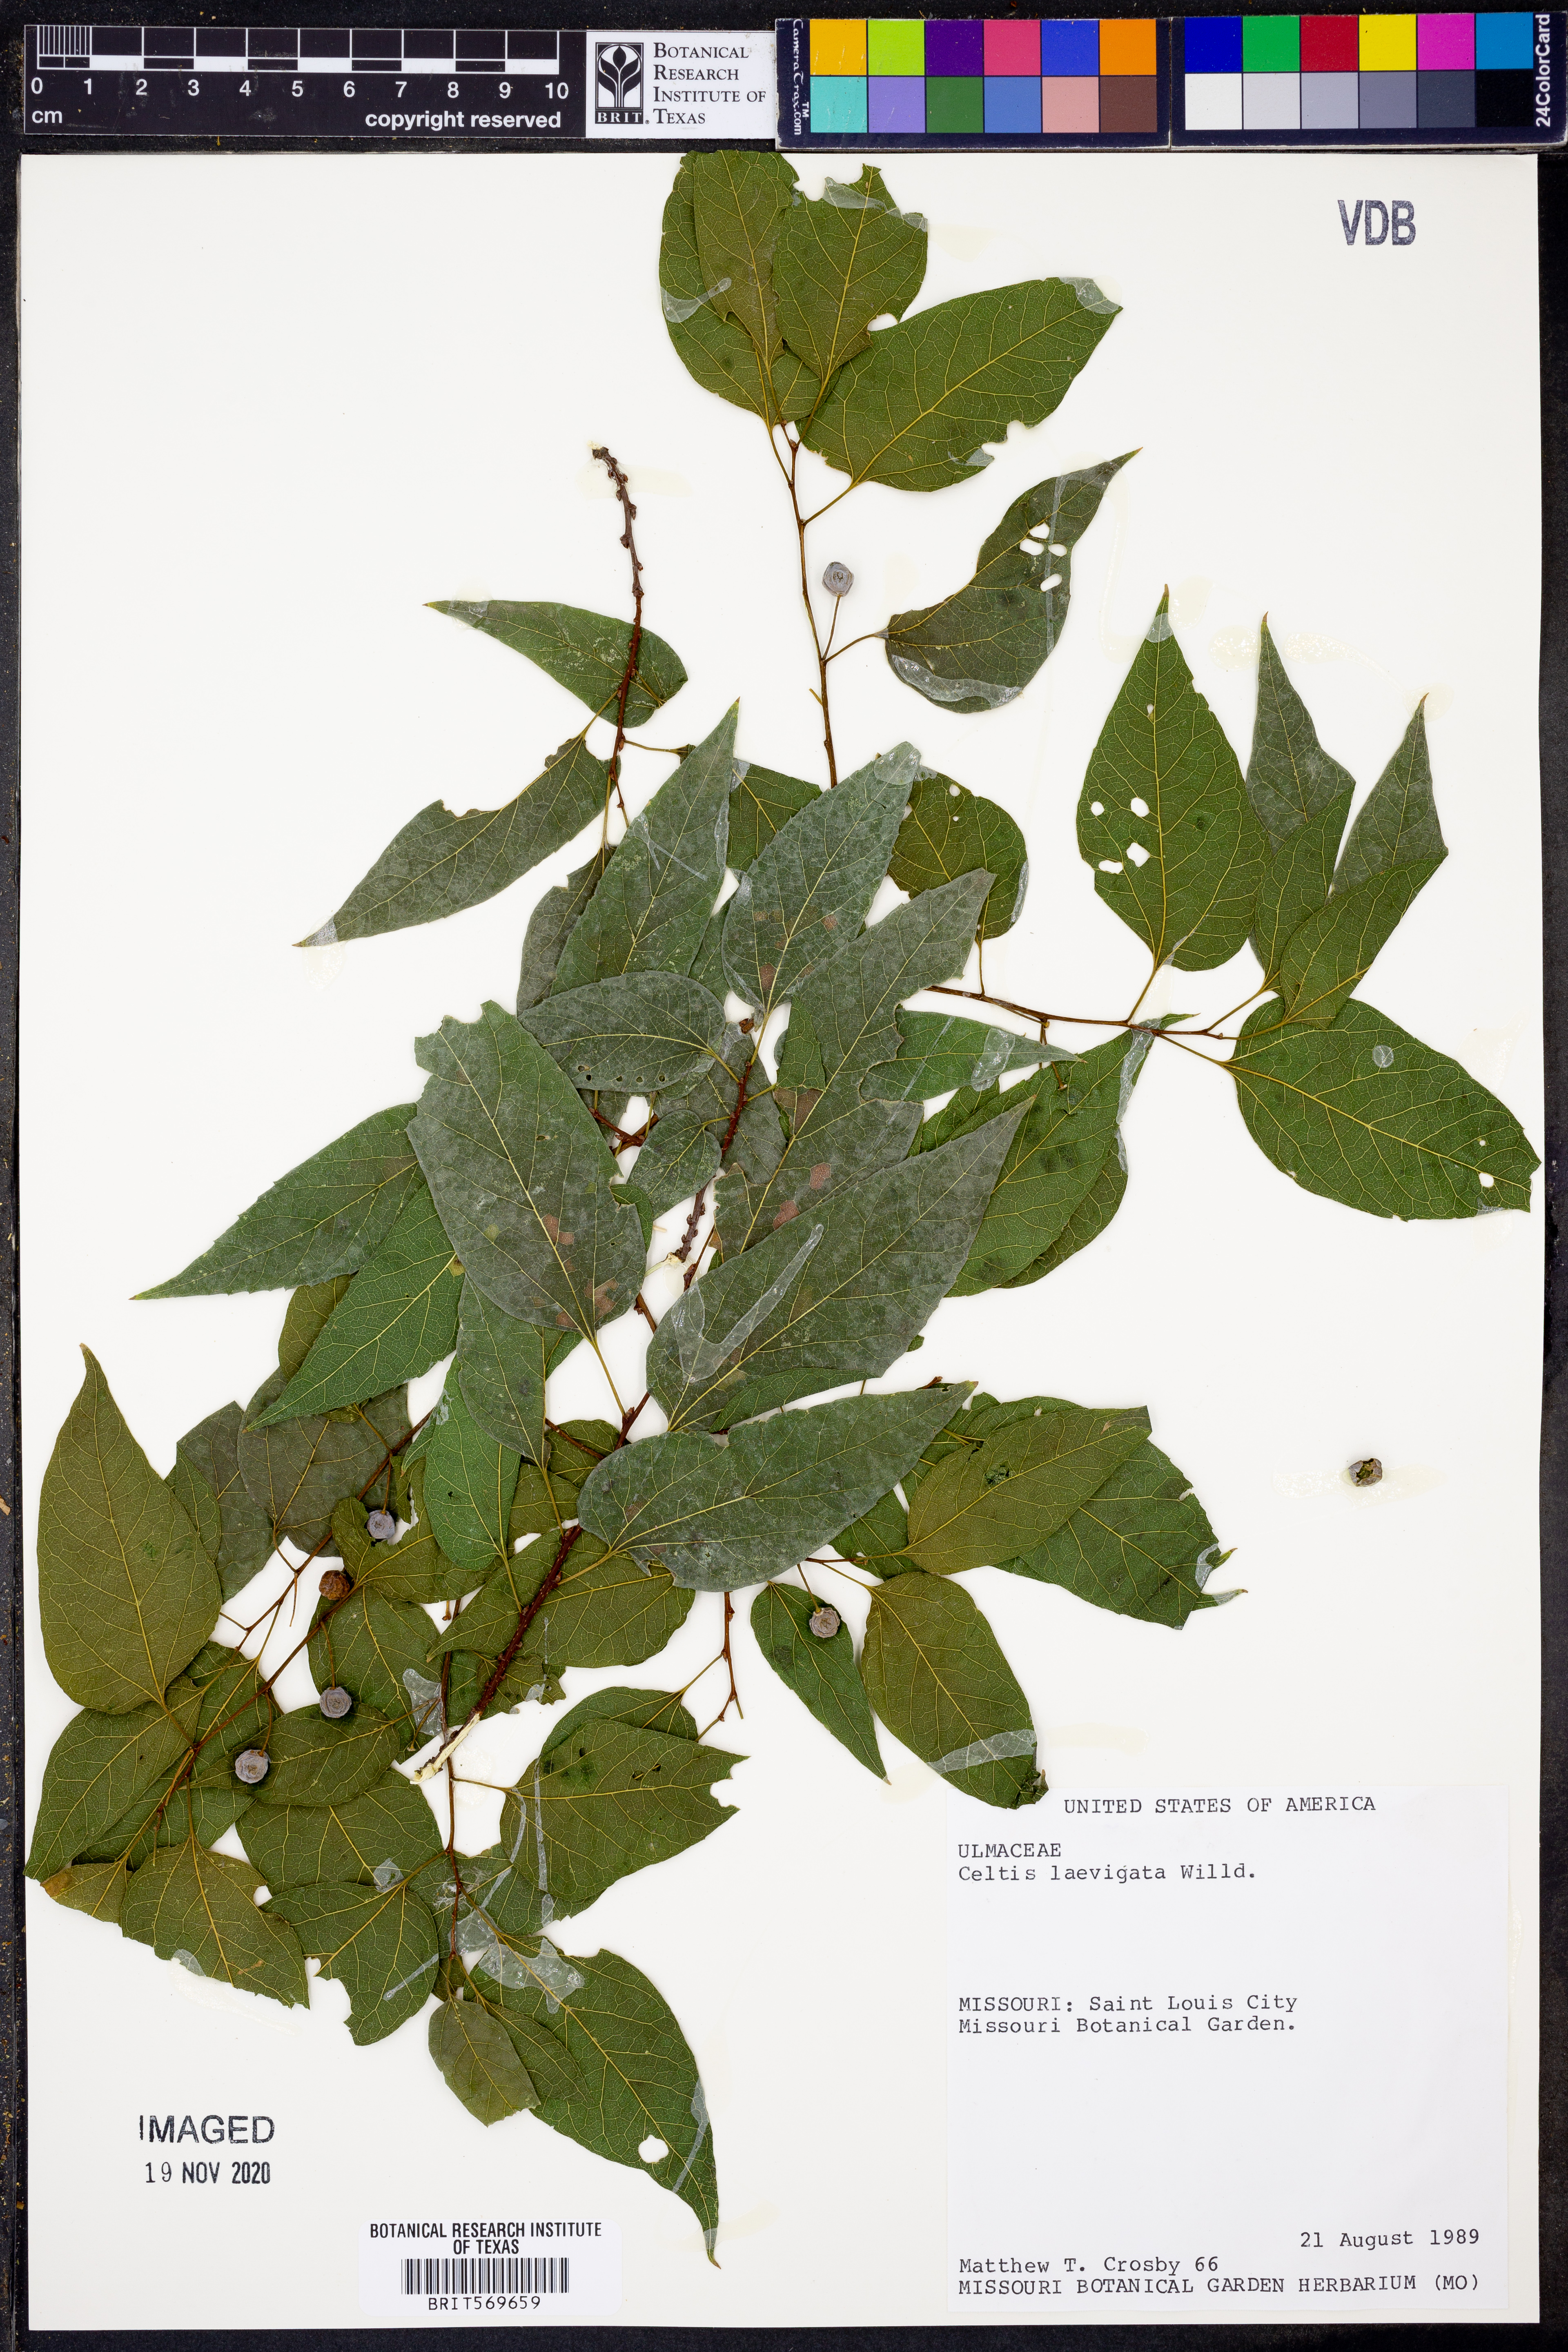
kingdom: Plantae
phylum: Tracheophyta
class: Magnoliopsida
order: Rosales
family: Cannabaceae
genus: Celtis
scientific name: Celtis laevigata
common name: Sugarberry
